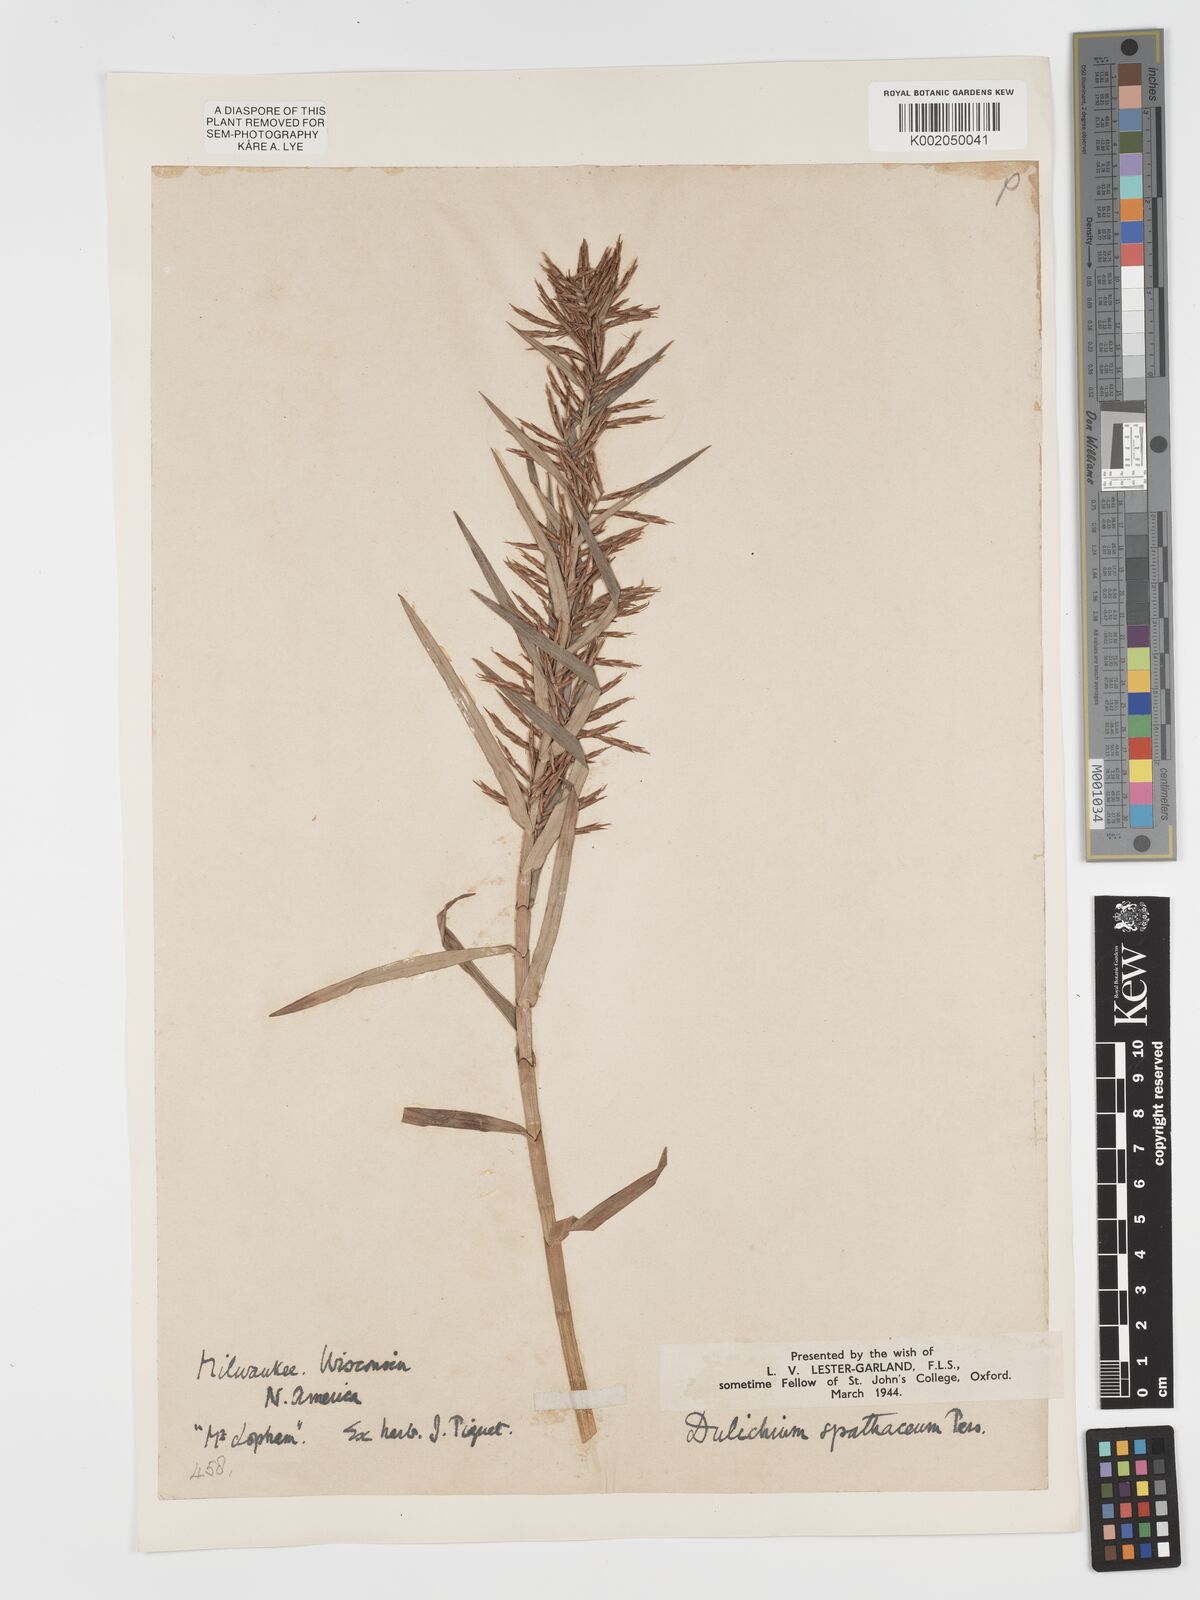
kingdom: Plantae
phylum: Tracheophyta
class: Liliopsida
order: Poales
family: Cyperaceae
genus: Dulichium
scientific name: Dulichium arundinaceum
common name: Three-way sedge
